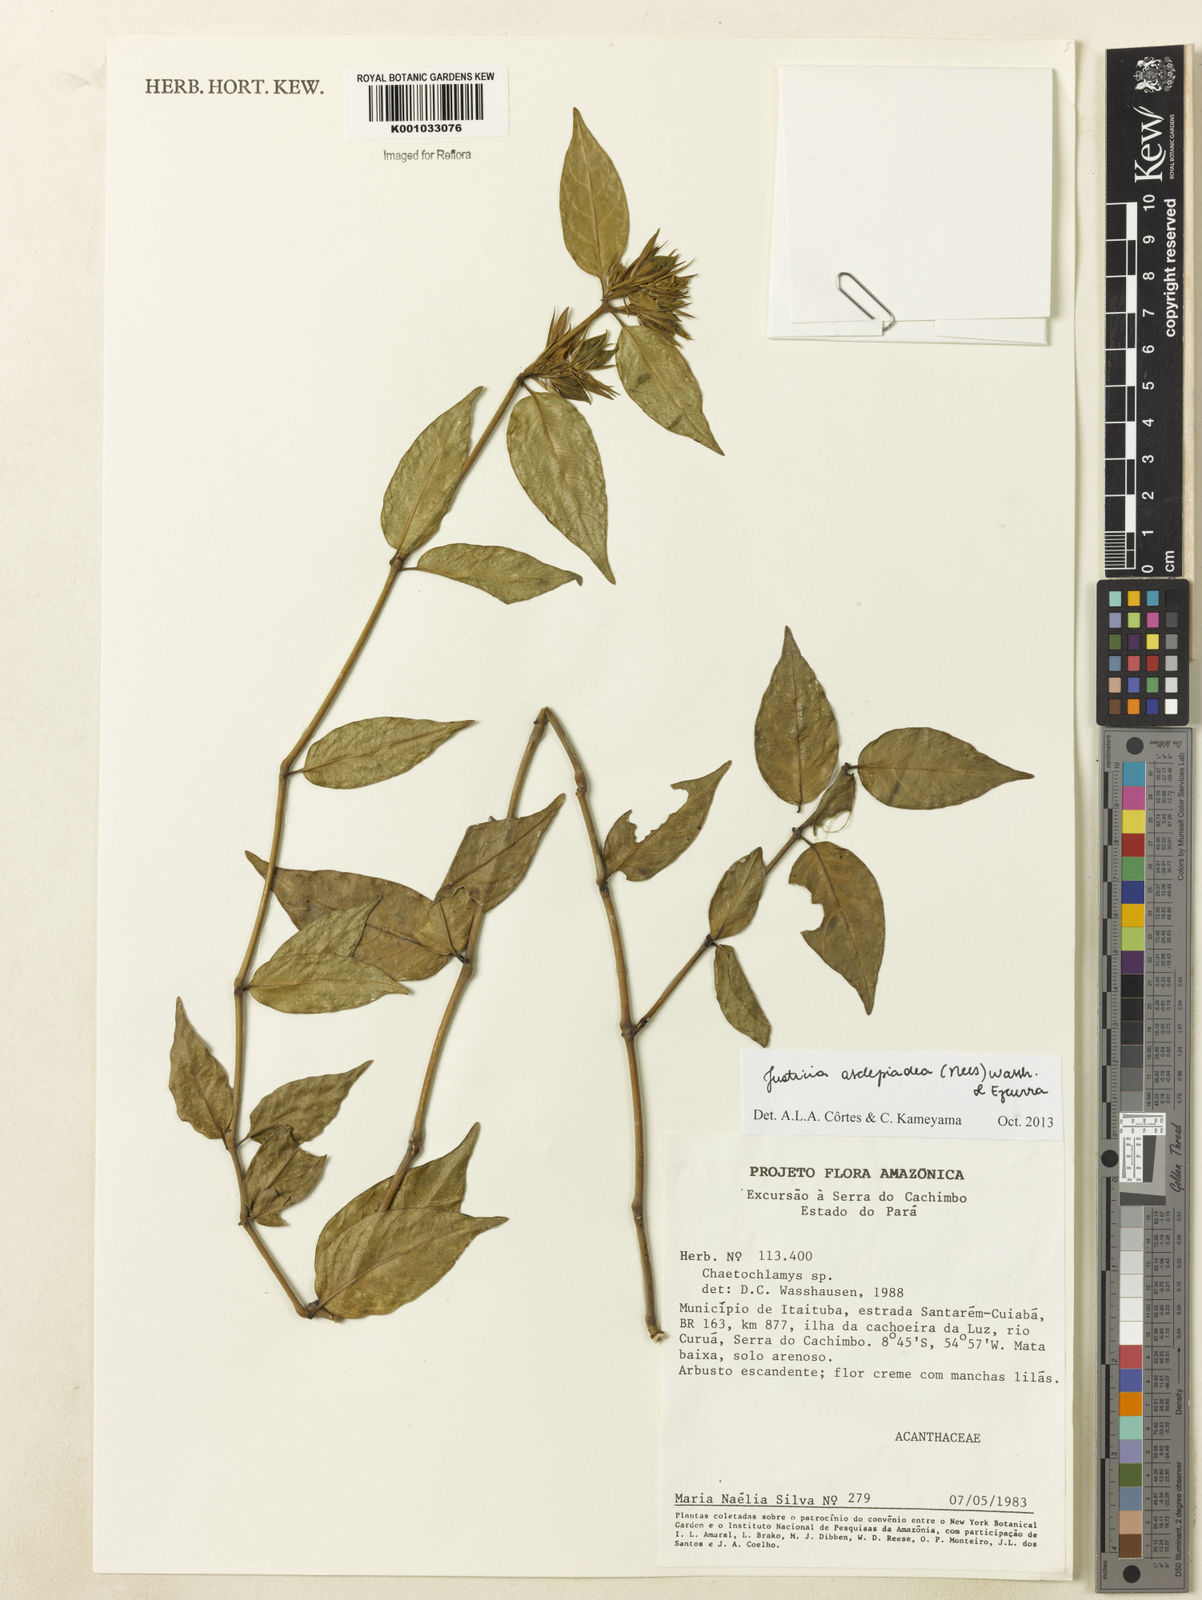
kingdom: Plantae
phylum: Tracheophyta
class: Magnoliopsida
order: Lamiales
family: Acanthaceae
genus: Justicia
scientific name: Justicia asclepiadea
